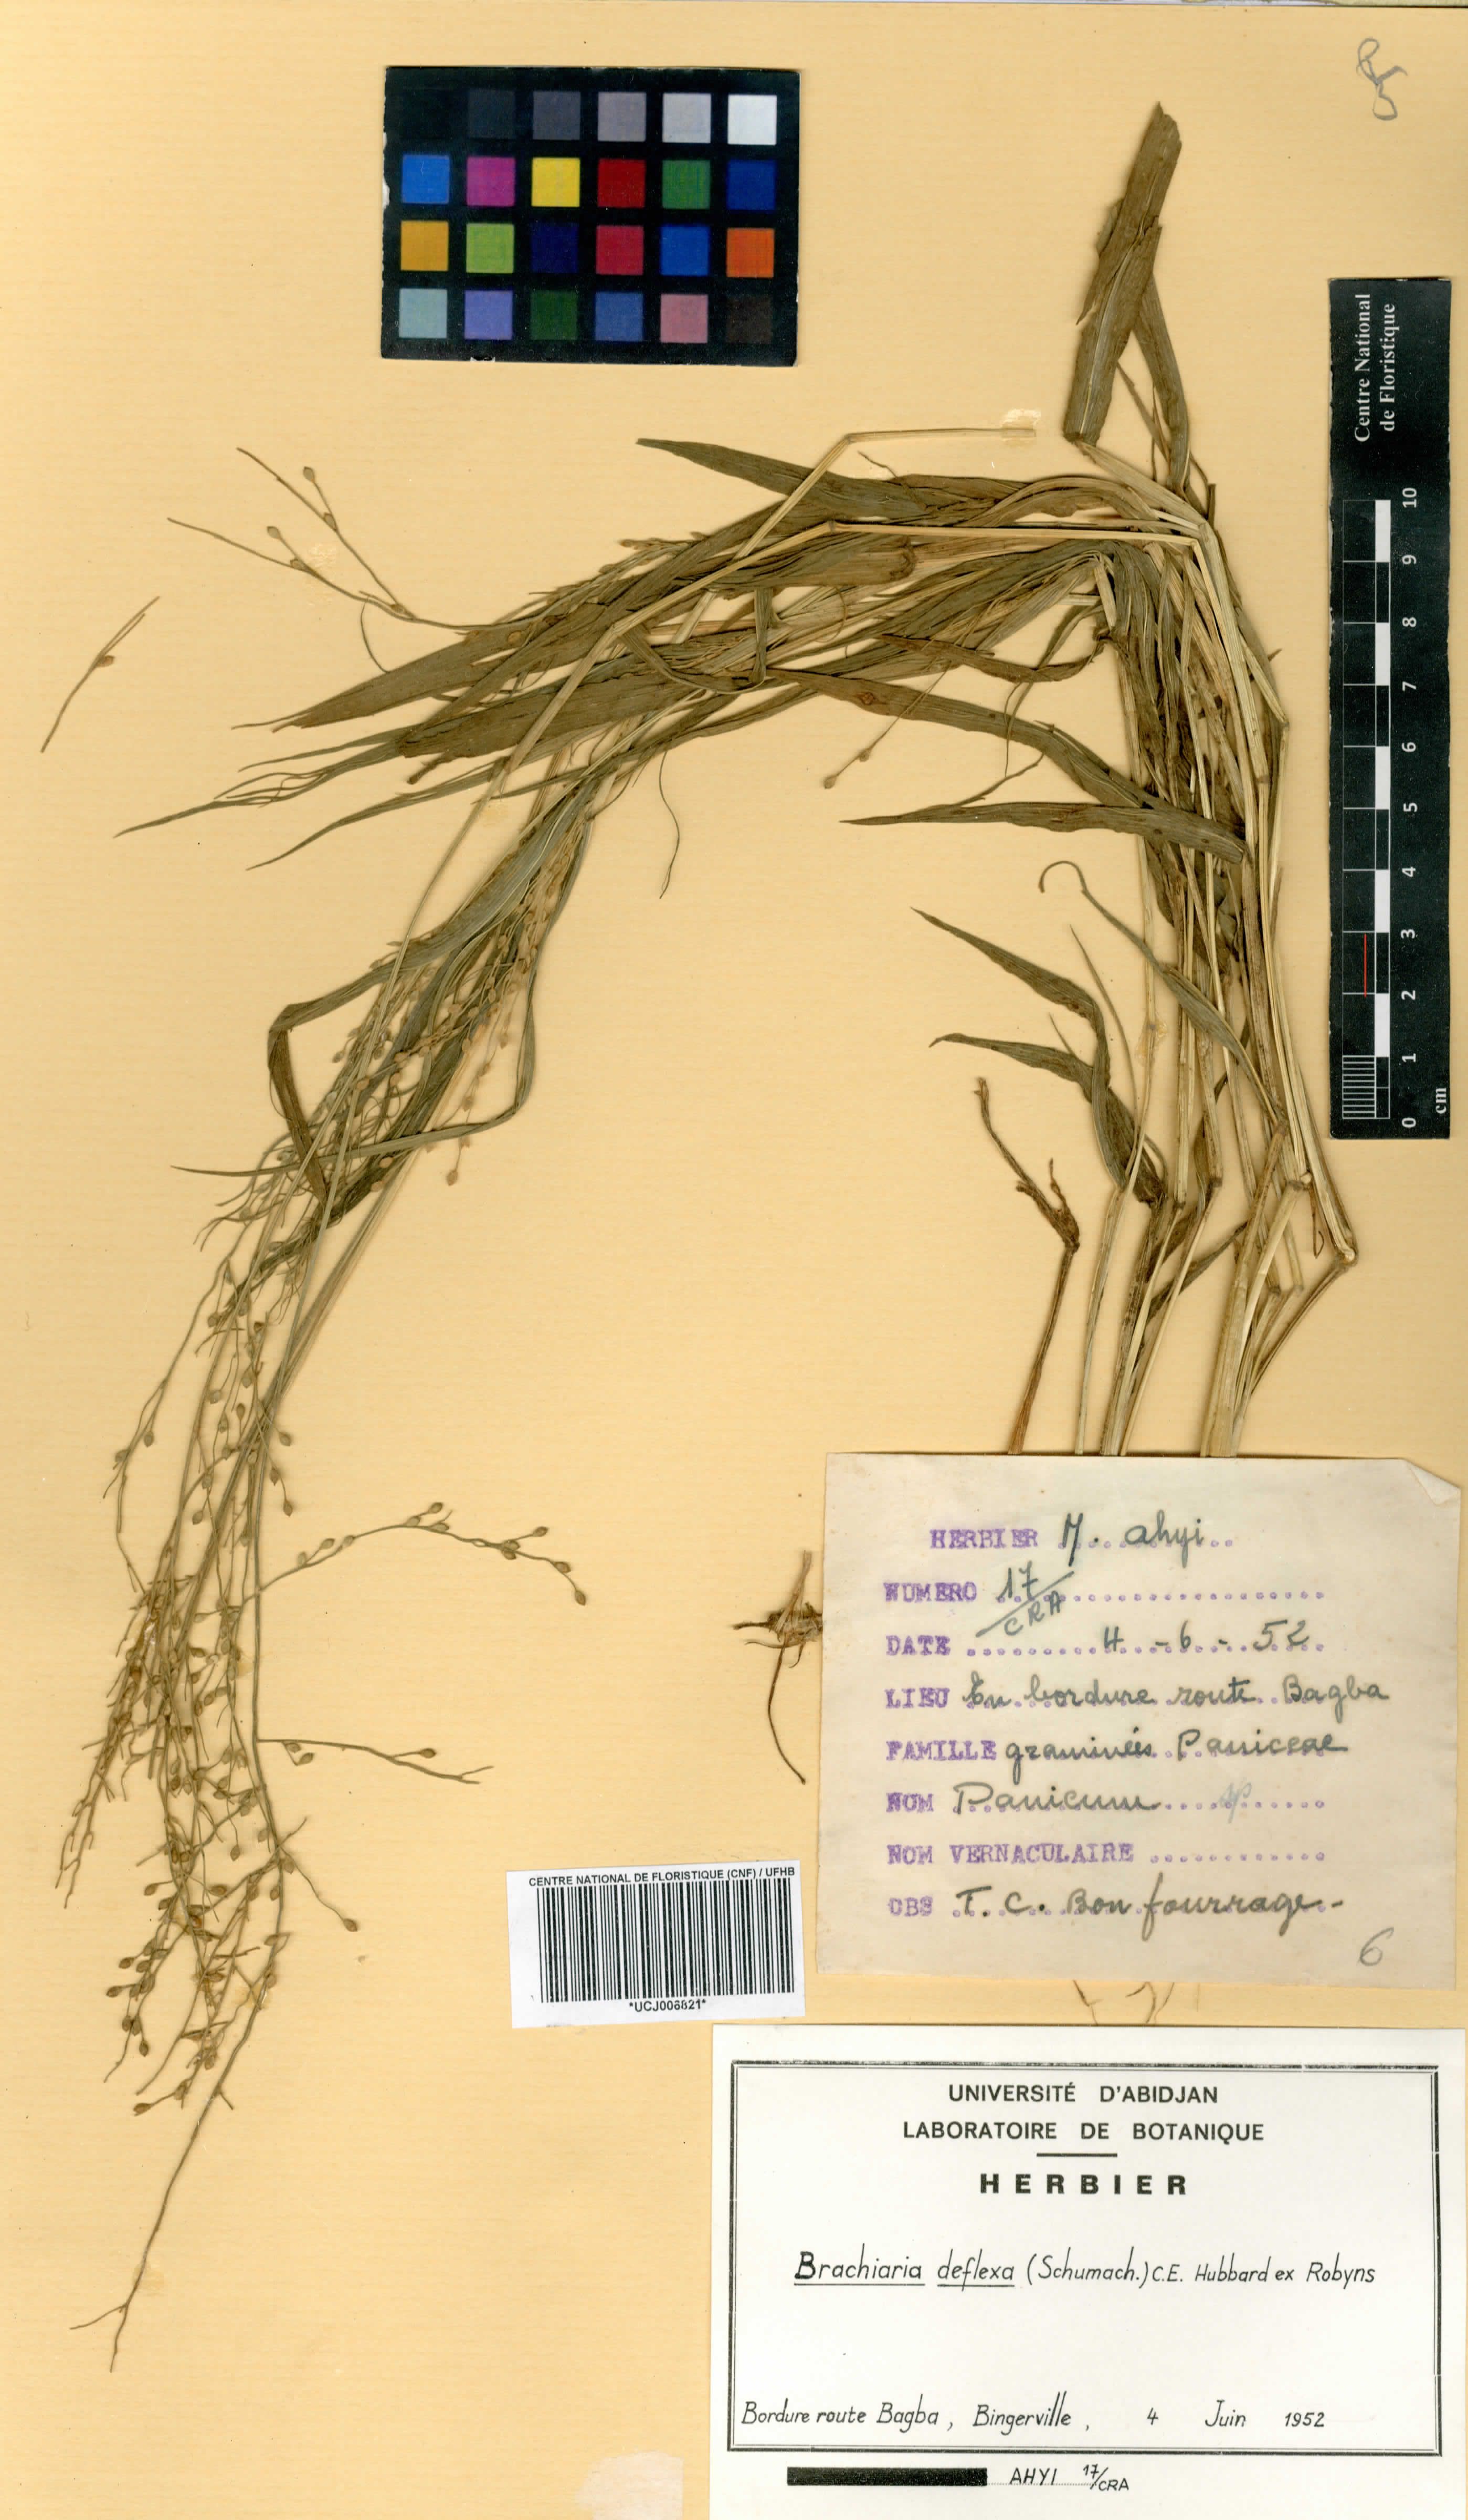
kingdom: Plantae
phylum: Tracheophyta
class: Liliopsida
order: Poales
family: Poaceae
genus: Urochloa
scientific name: Urochloa deflexa
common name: Guinea millet
